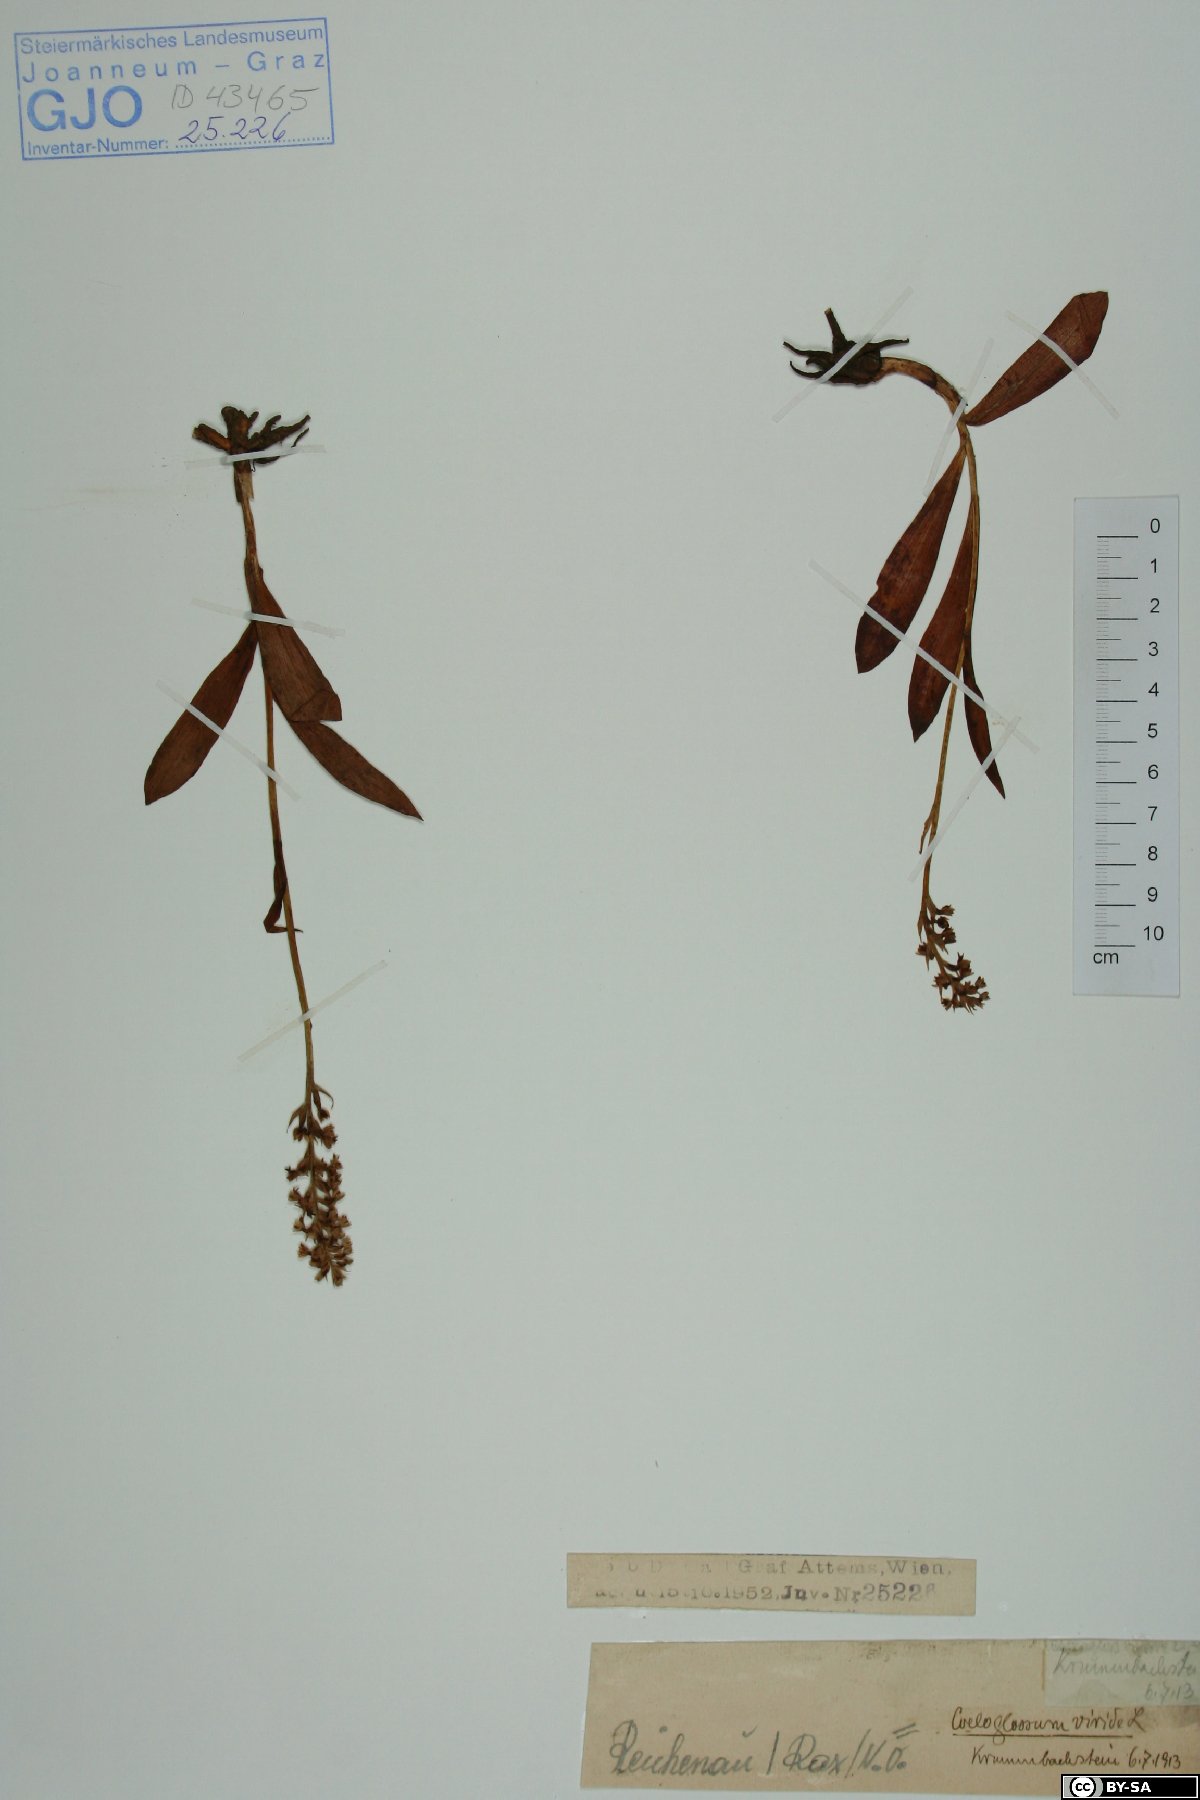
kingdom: Plantae
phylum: Tracheophyta
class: Liliopsida
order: Asparagales
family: Orchidaceae
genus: Dactylorhiza
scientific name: Dactylorhiza viridis
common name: Longbract frog orchid
